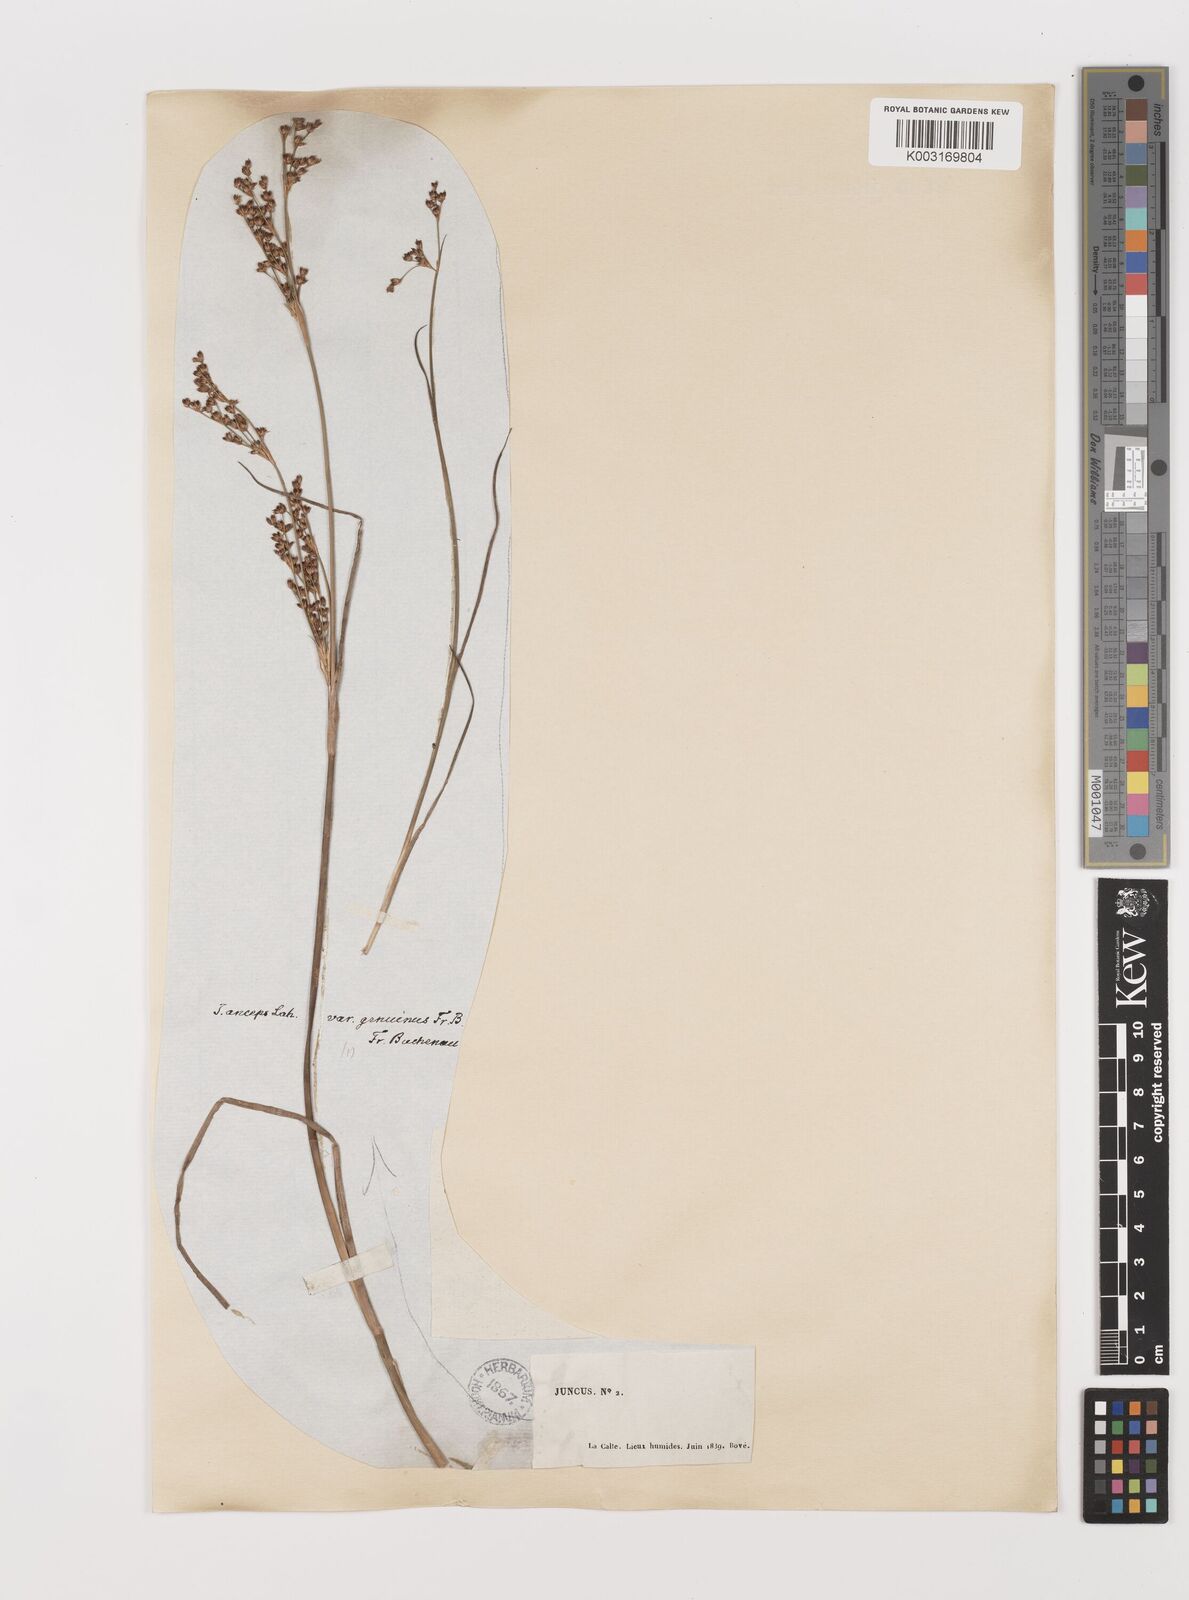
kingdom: Plantae
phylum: Tracheophyta
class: Liliopsida
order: Poales
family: Juncaceae
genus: Juncus
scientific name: Juncus anceps
